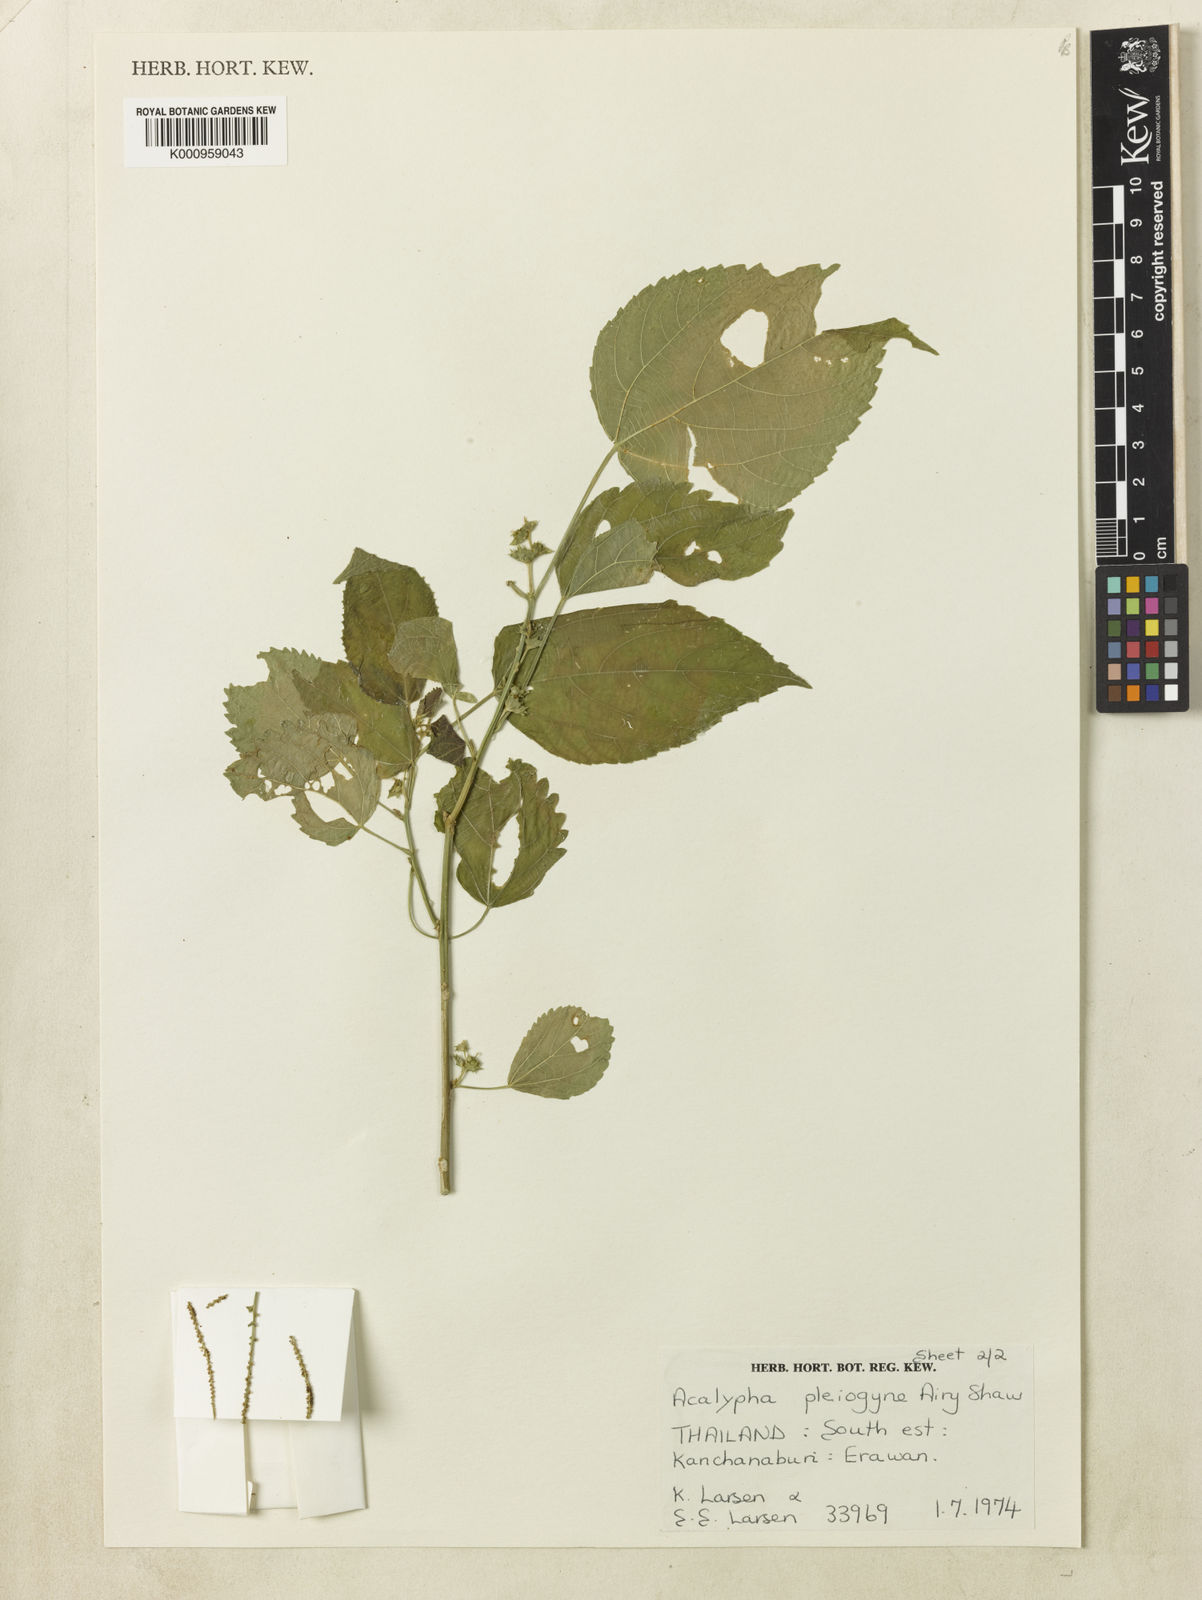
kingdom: Plantae
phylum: Tracheophyta
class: Magnoliopsida
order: Malpighiales
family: Euphorbiaceae
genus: Acalypha
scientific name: Acalypha pleiogyne
